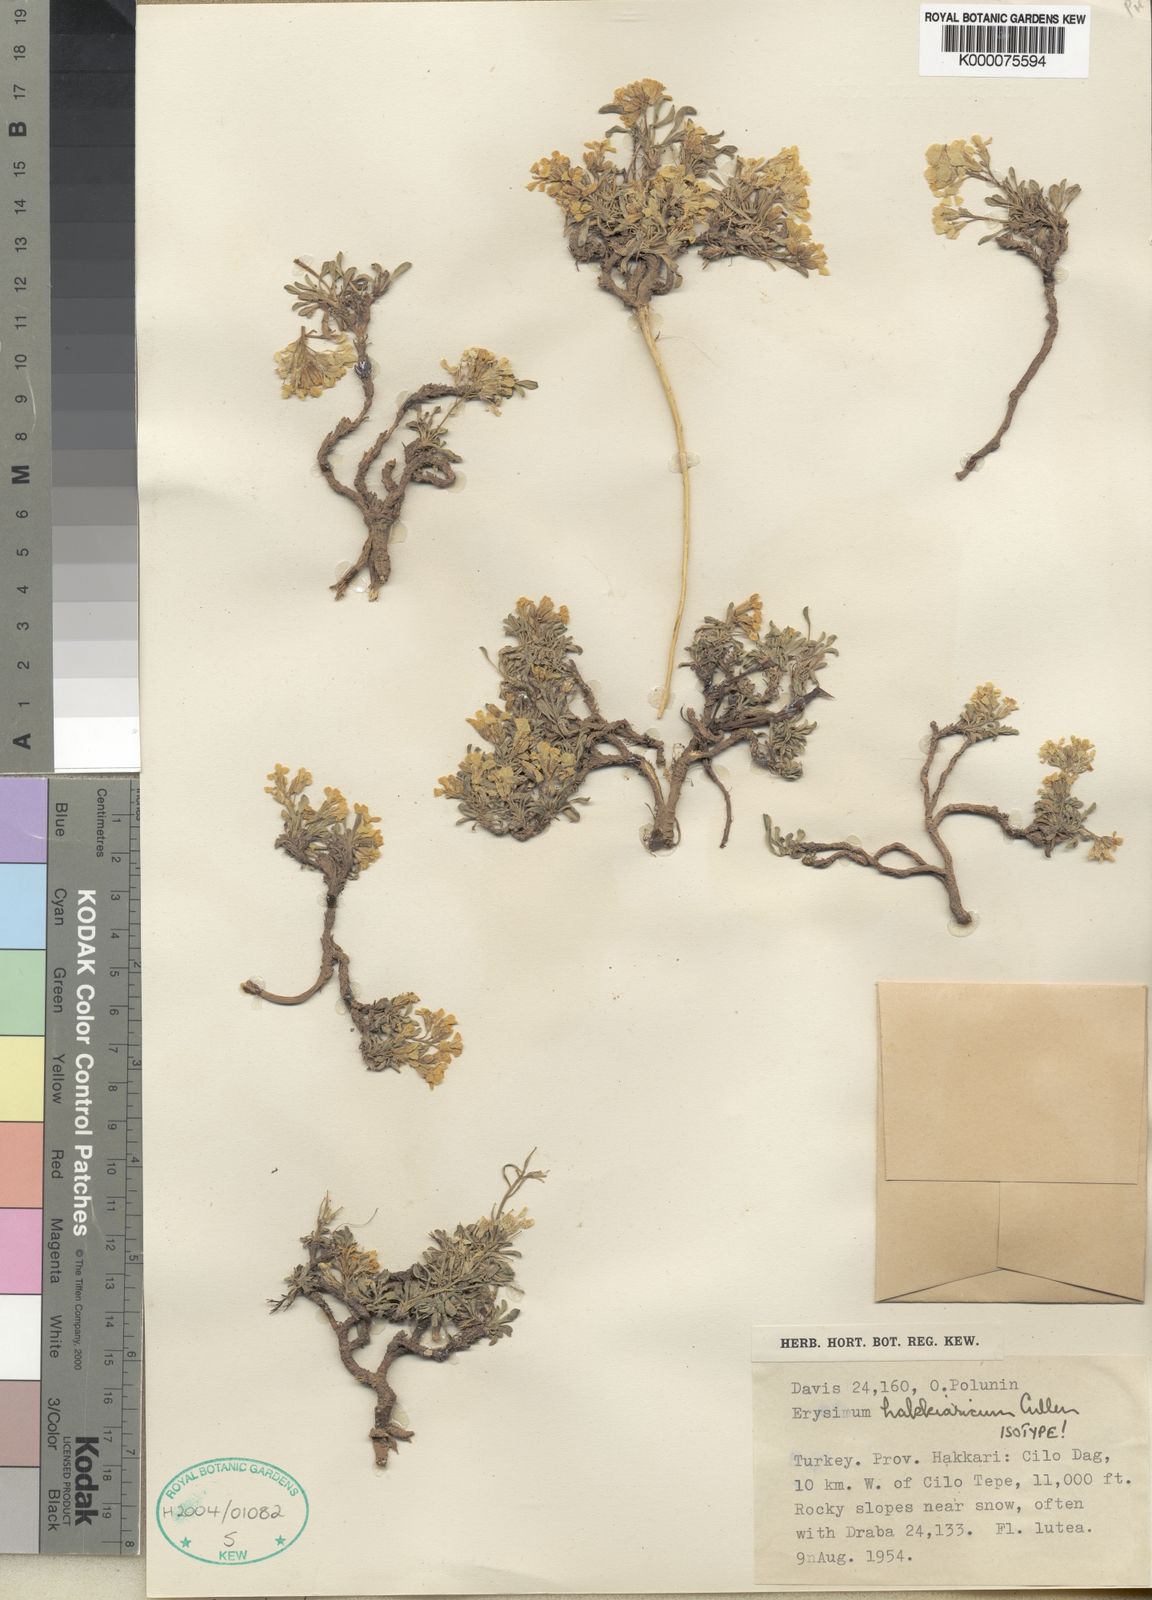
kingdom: Plantae
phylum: Tracheophyta
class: Magnoliopsida
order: Brassicales
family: Brassicaceae
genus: Erysimum
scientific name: Erysimum hakkiaricum
